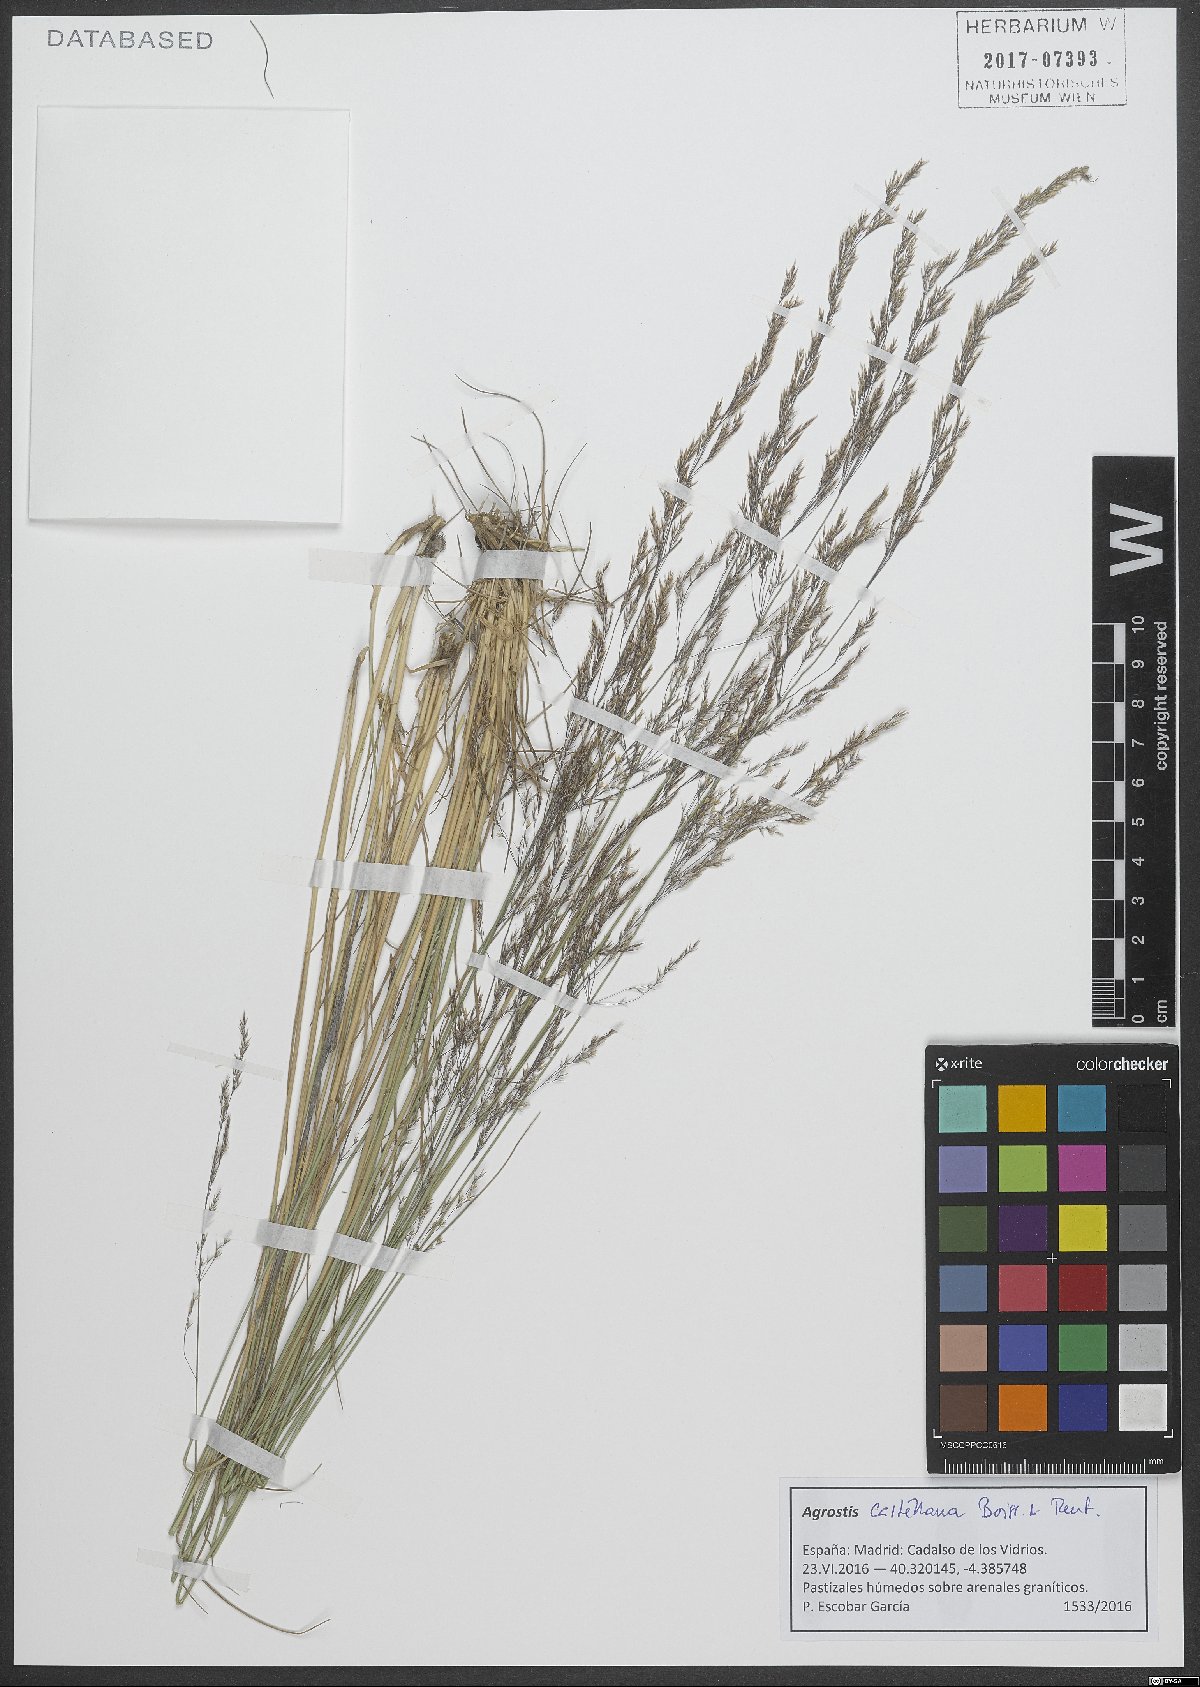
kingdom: Plantae
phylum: Tracheophyta
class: Liliopsida
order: Poales
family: Poaceae
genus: Agrostis
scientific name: Agrostis castellana
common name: Highland bent
